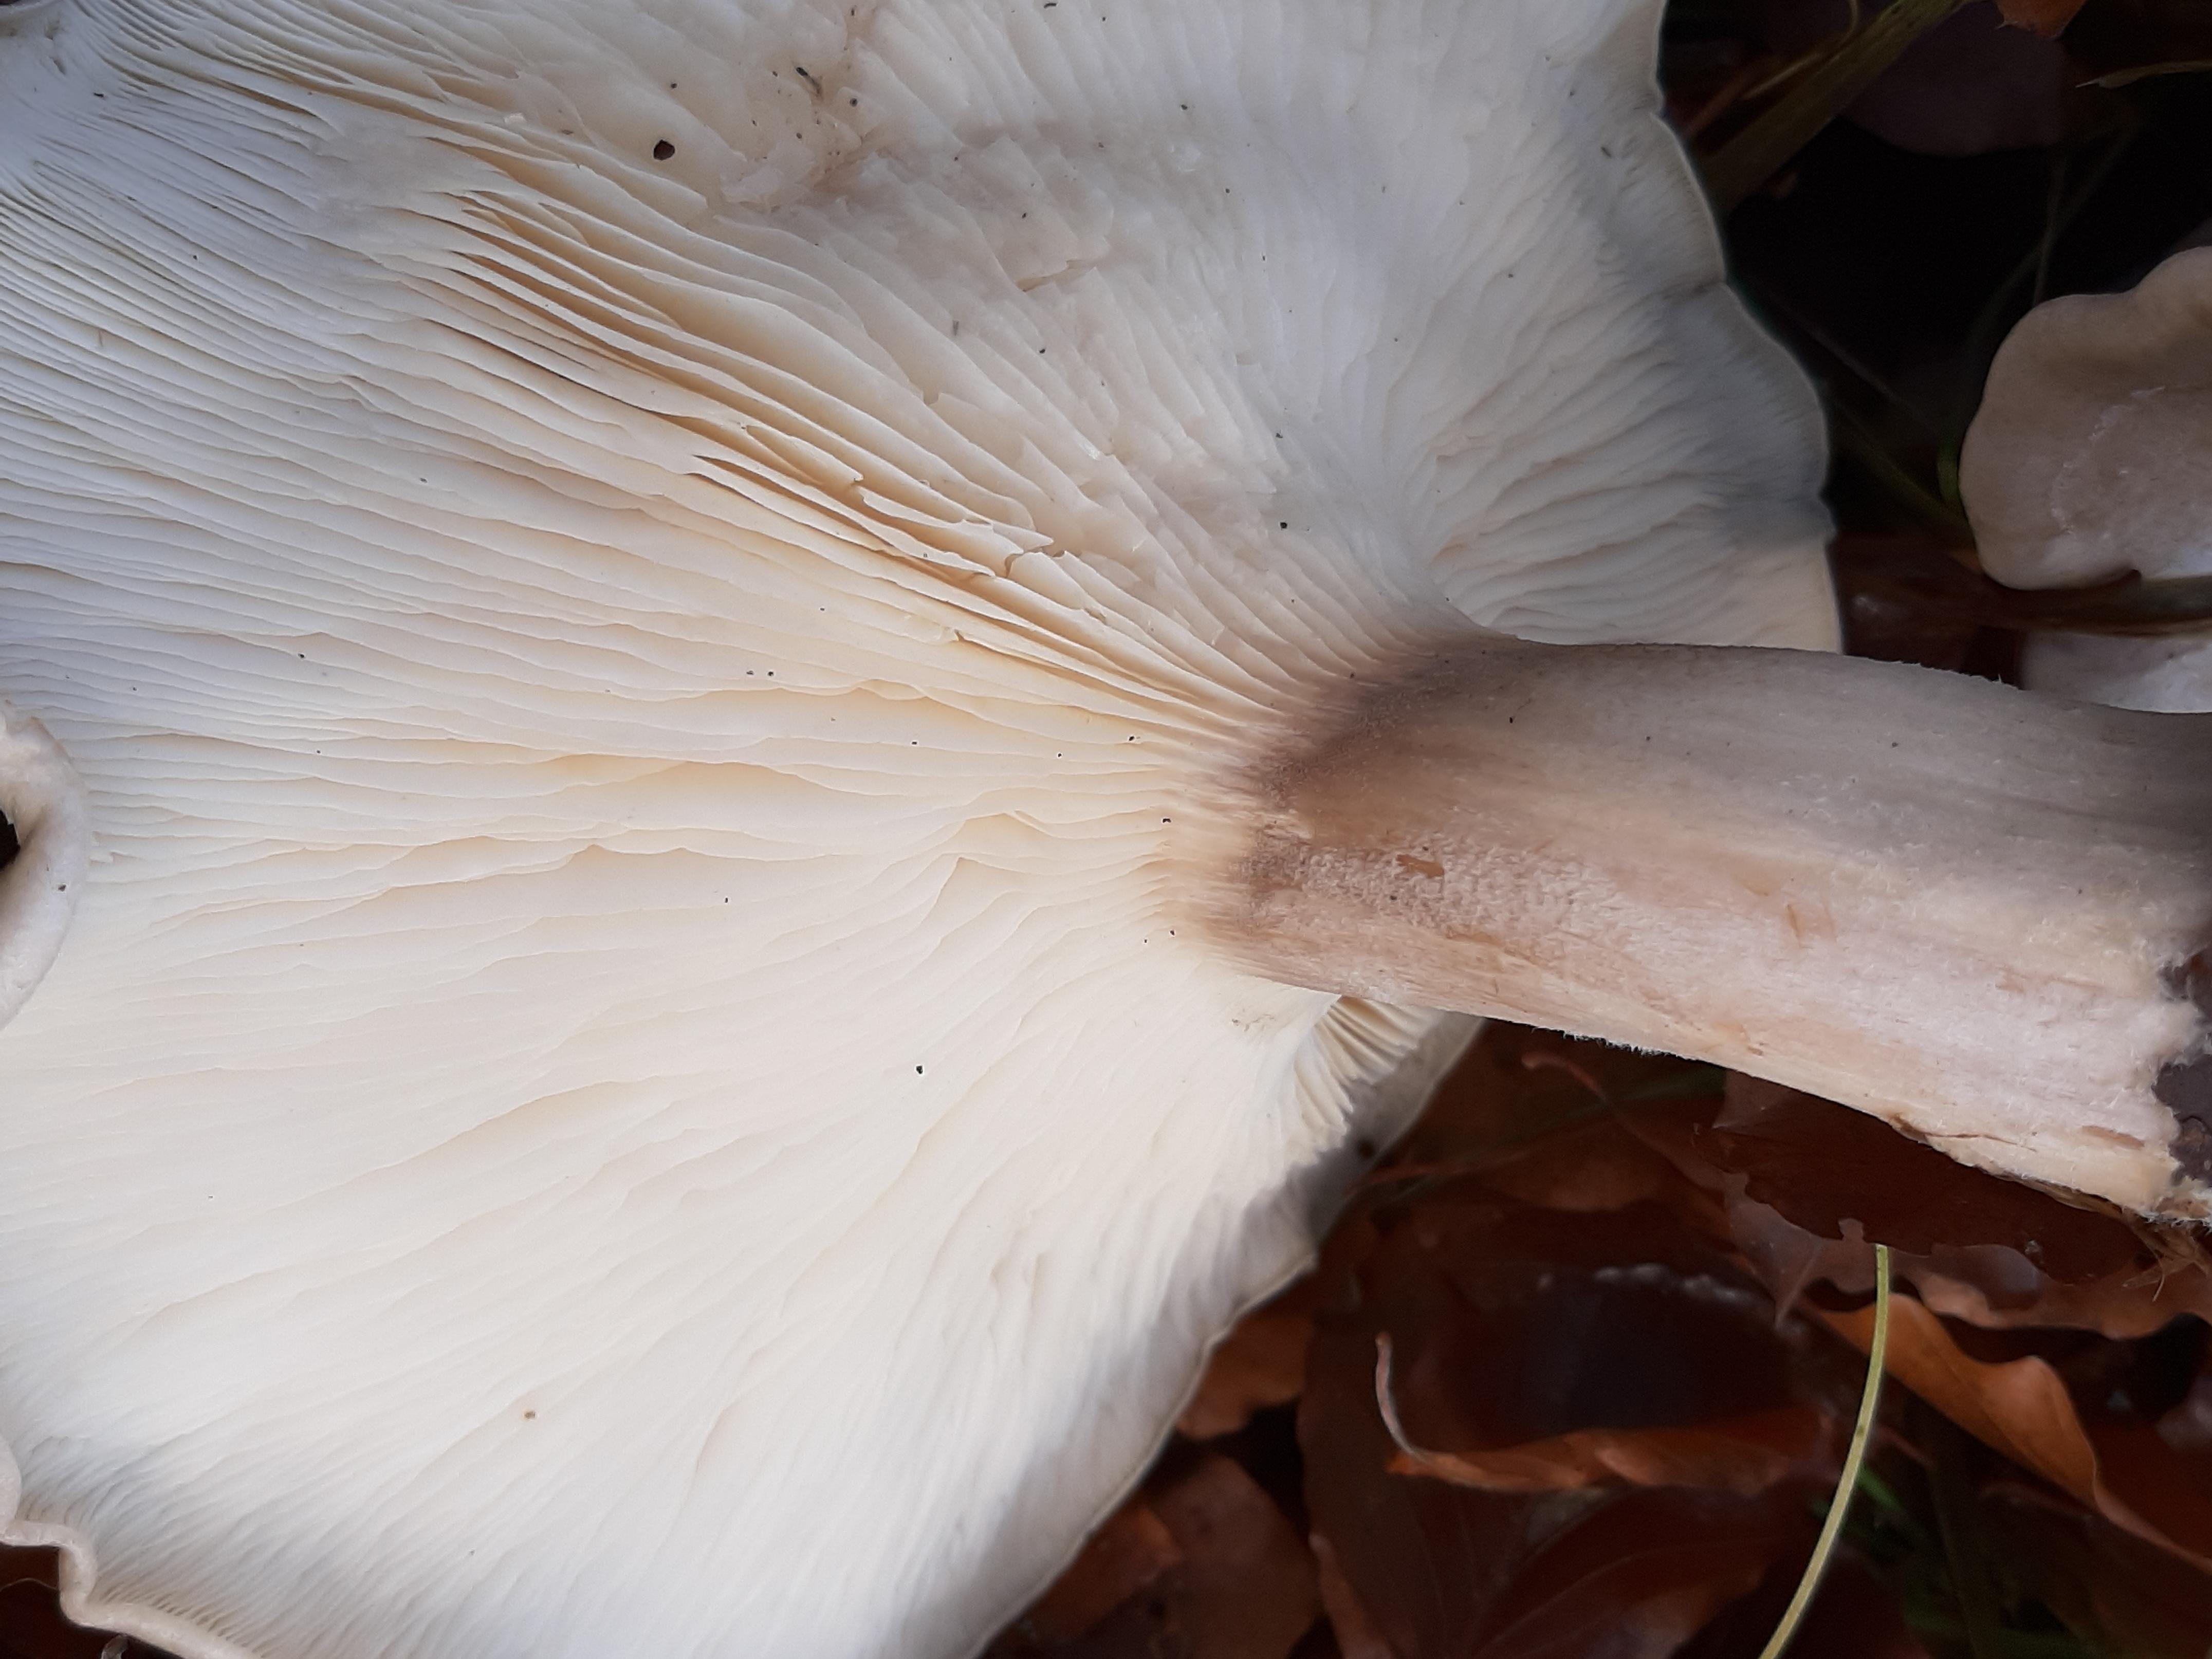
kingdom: Fungi
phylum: Basidiomycota
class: Agaricomycetes
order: Agaricales
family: Tricholomataceae
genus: Clitocybe
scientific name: Clitocybe nebularis
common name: tåge-tragthat
